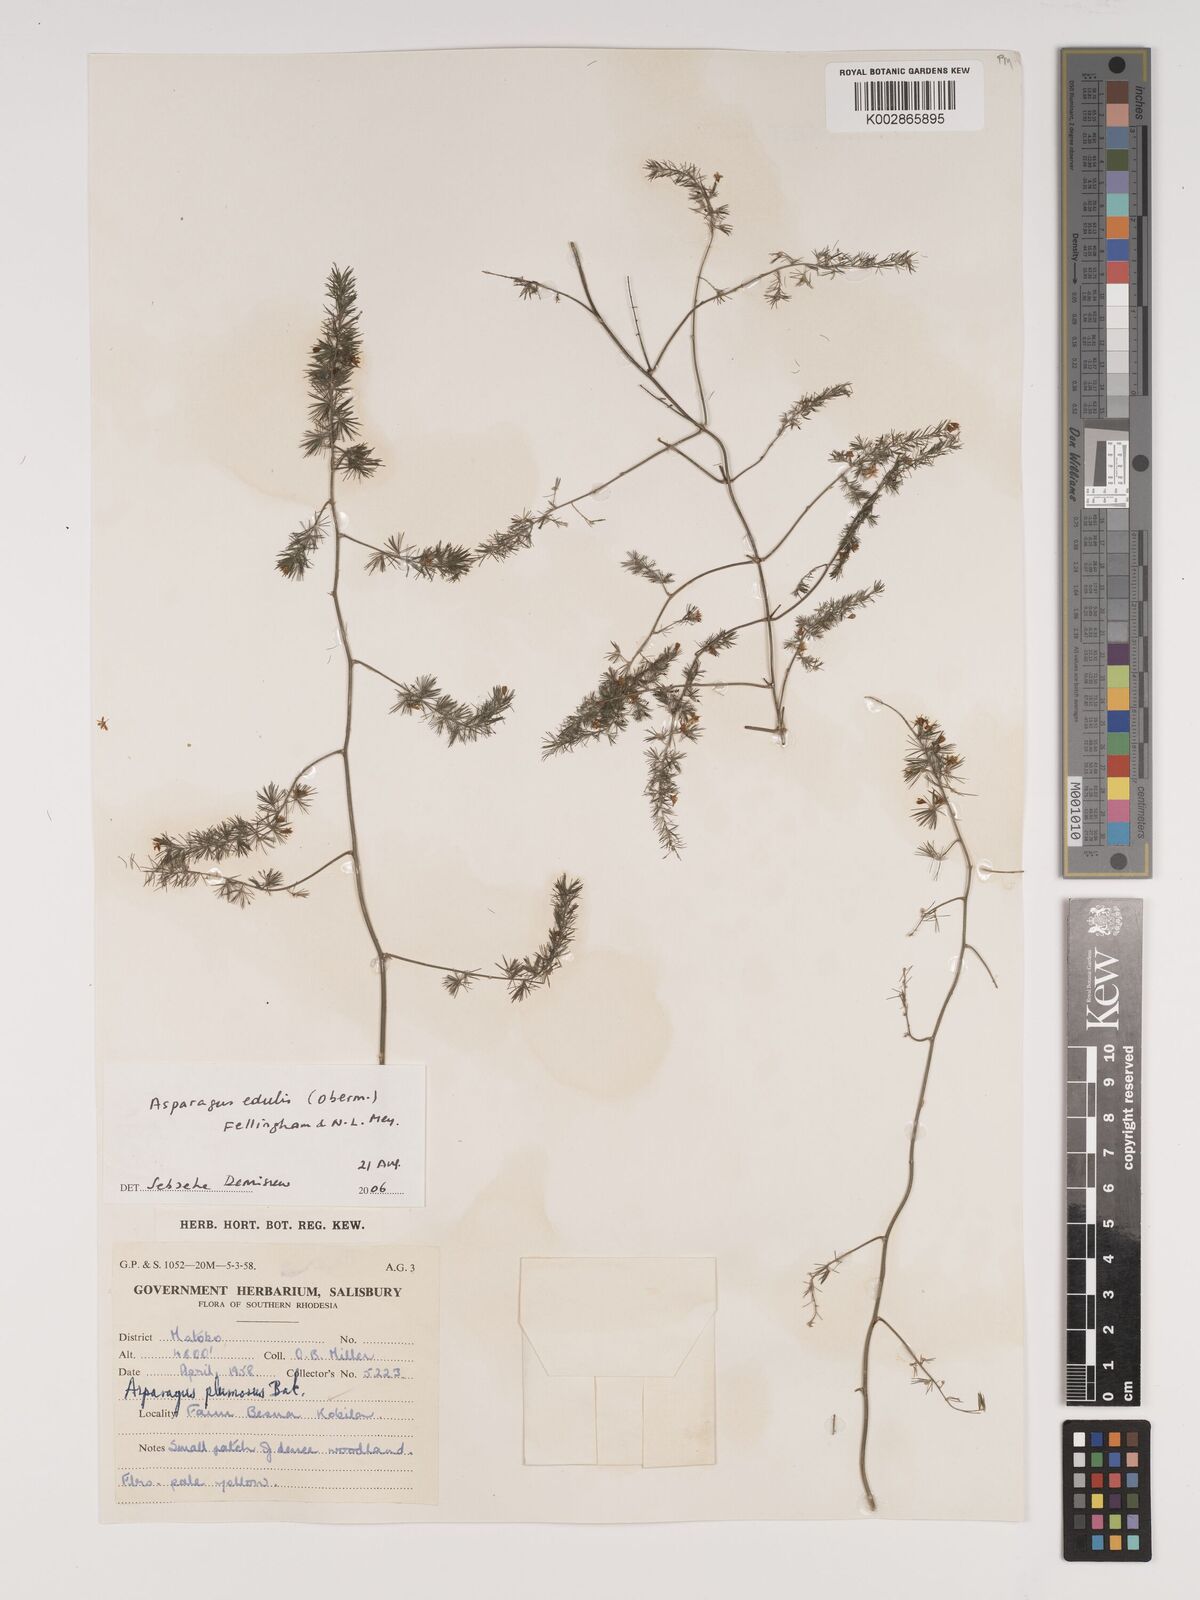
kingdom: Plantae
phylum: Tracheophyta
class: Liliopsida
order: Asparagales
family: Asparagaceae
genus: Asparagus
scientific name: Asparagus edulis
